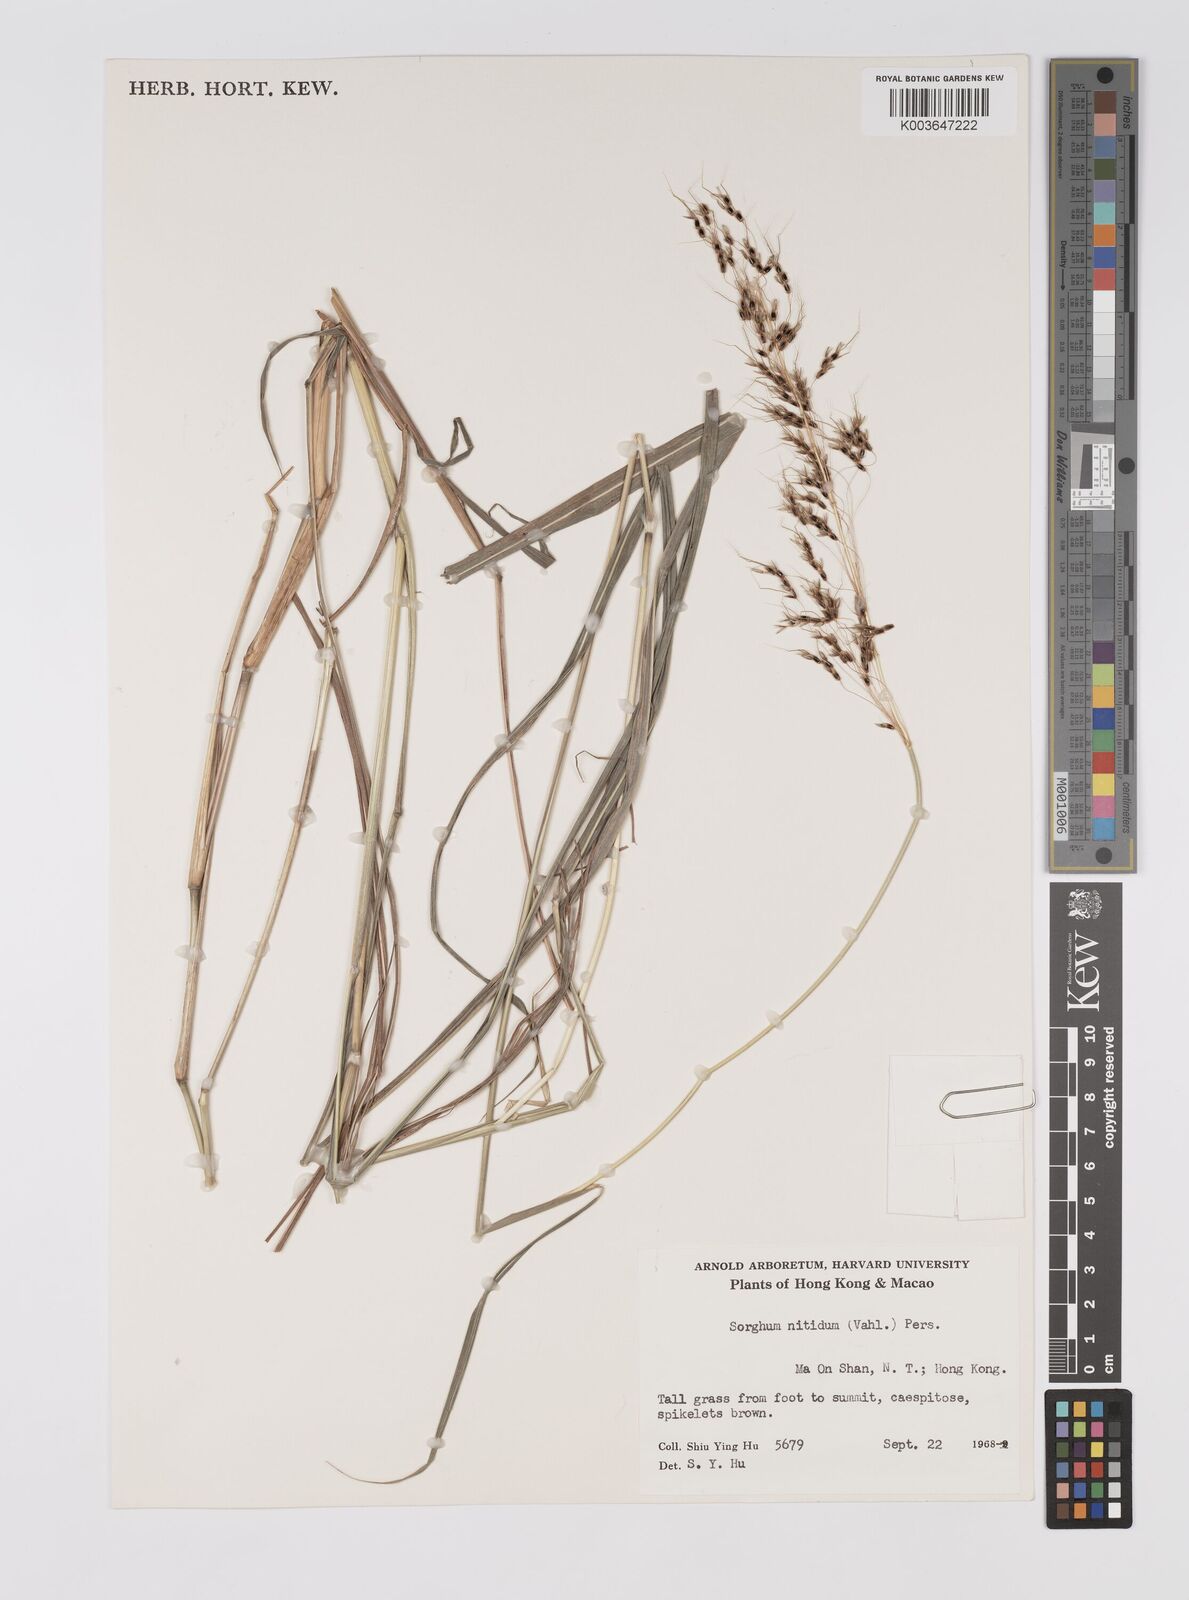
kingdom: Plantae
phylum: Tracheophyta
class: Liliopsida
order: Poales
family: Poaceae
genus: Sorghum
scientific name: Sorghum nitidum
